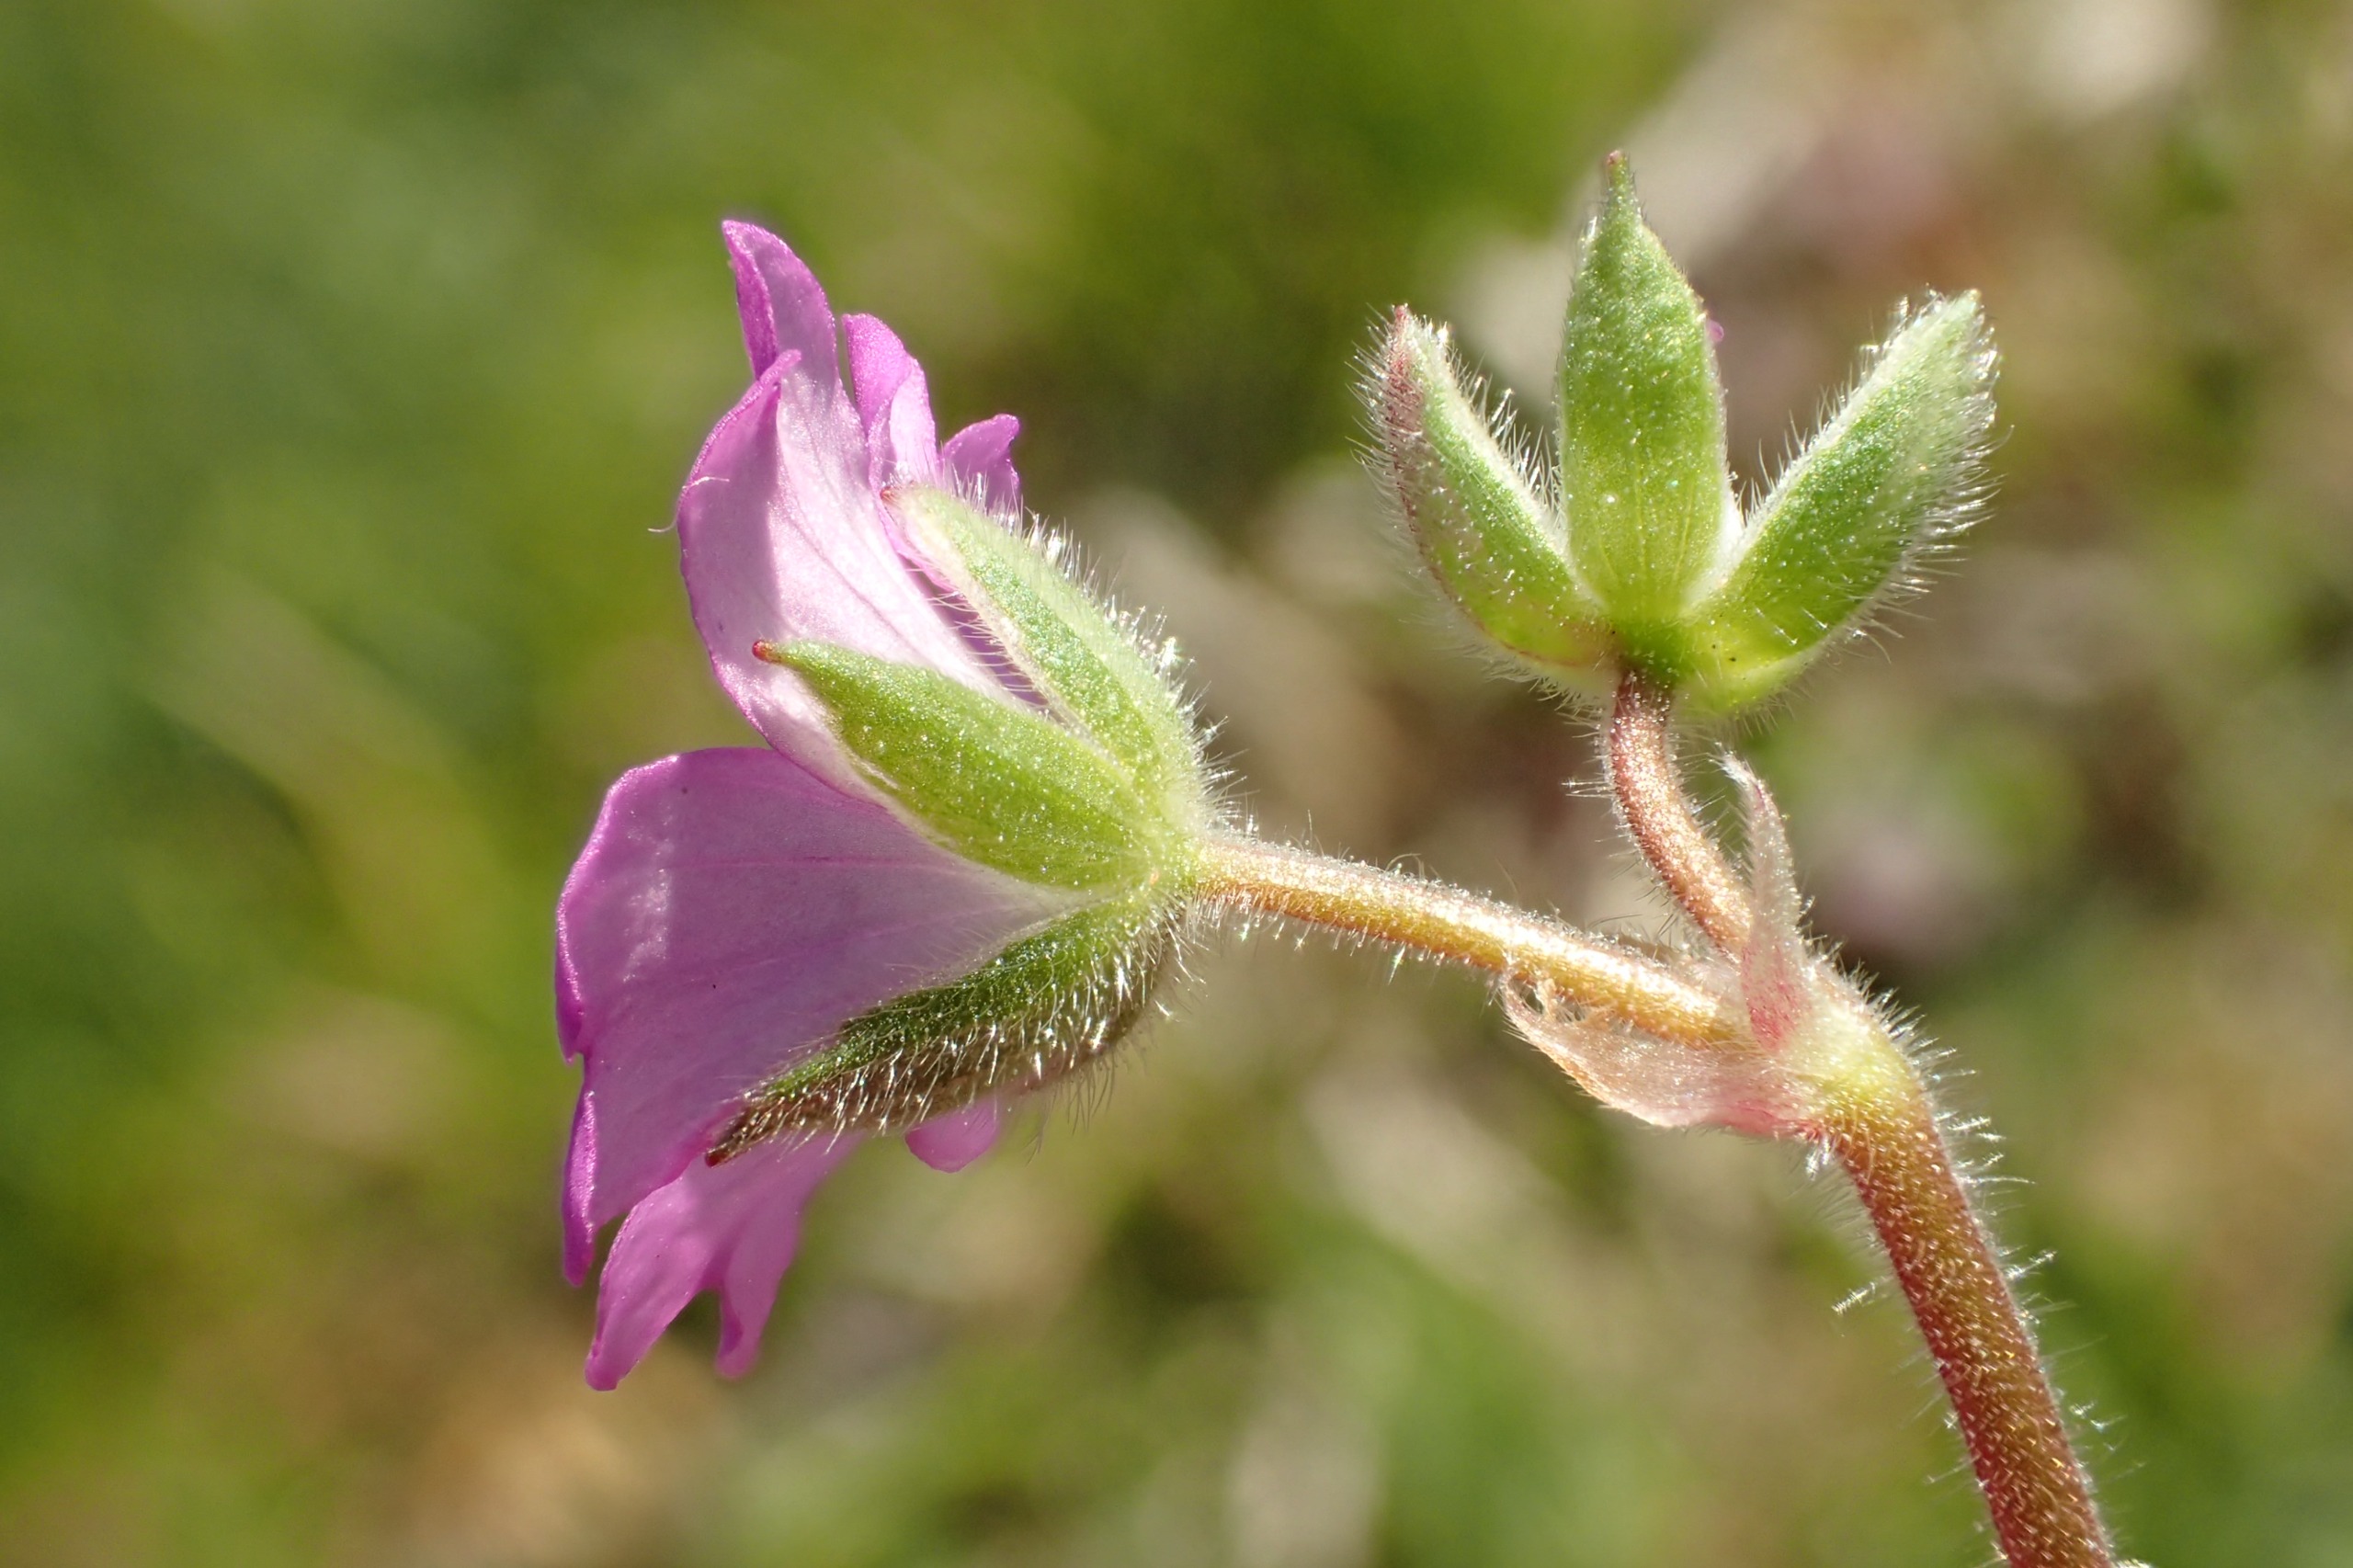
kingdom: Plantae
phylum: Tracheophyta
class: Magnoliopsida
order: Geraniales
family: Geraniaceae
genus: Geranium
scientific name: Geranium molle
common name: Blød storkenæb
